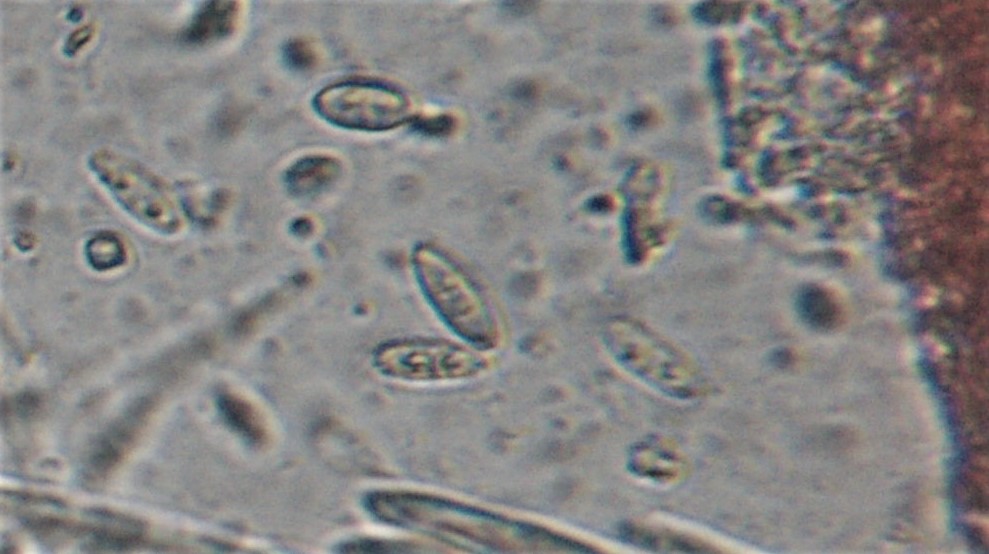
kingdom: Fungi
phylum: Ascomycota
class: Sordariomycetes
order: Hypocreales
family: Nectriaceae
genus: Neonectria
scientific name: Neonectria
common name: cinnobersvamp
